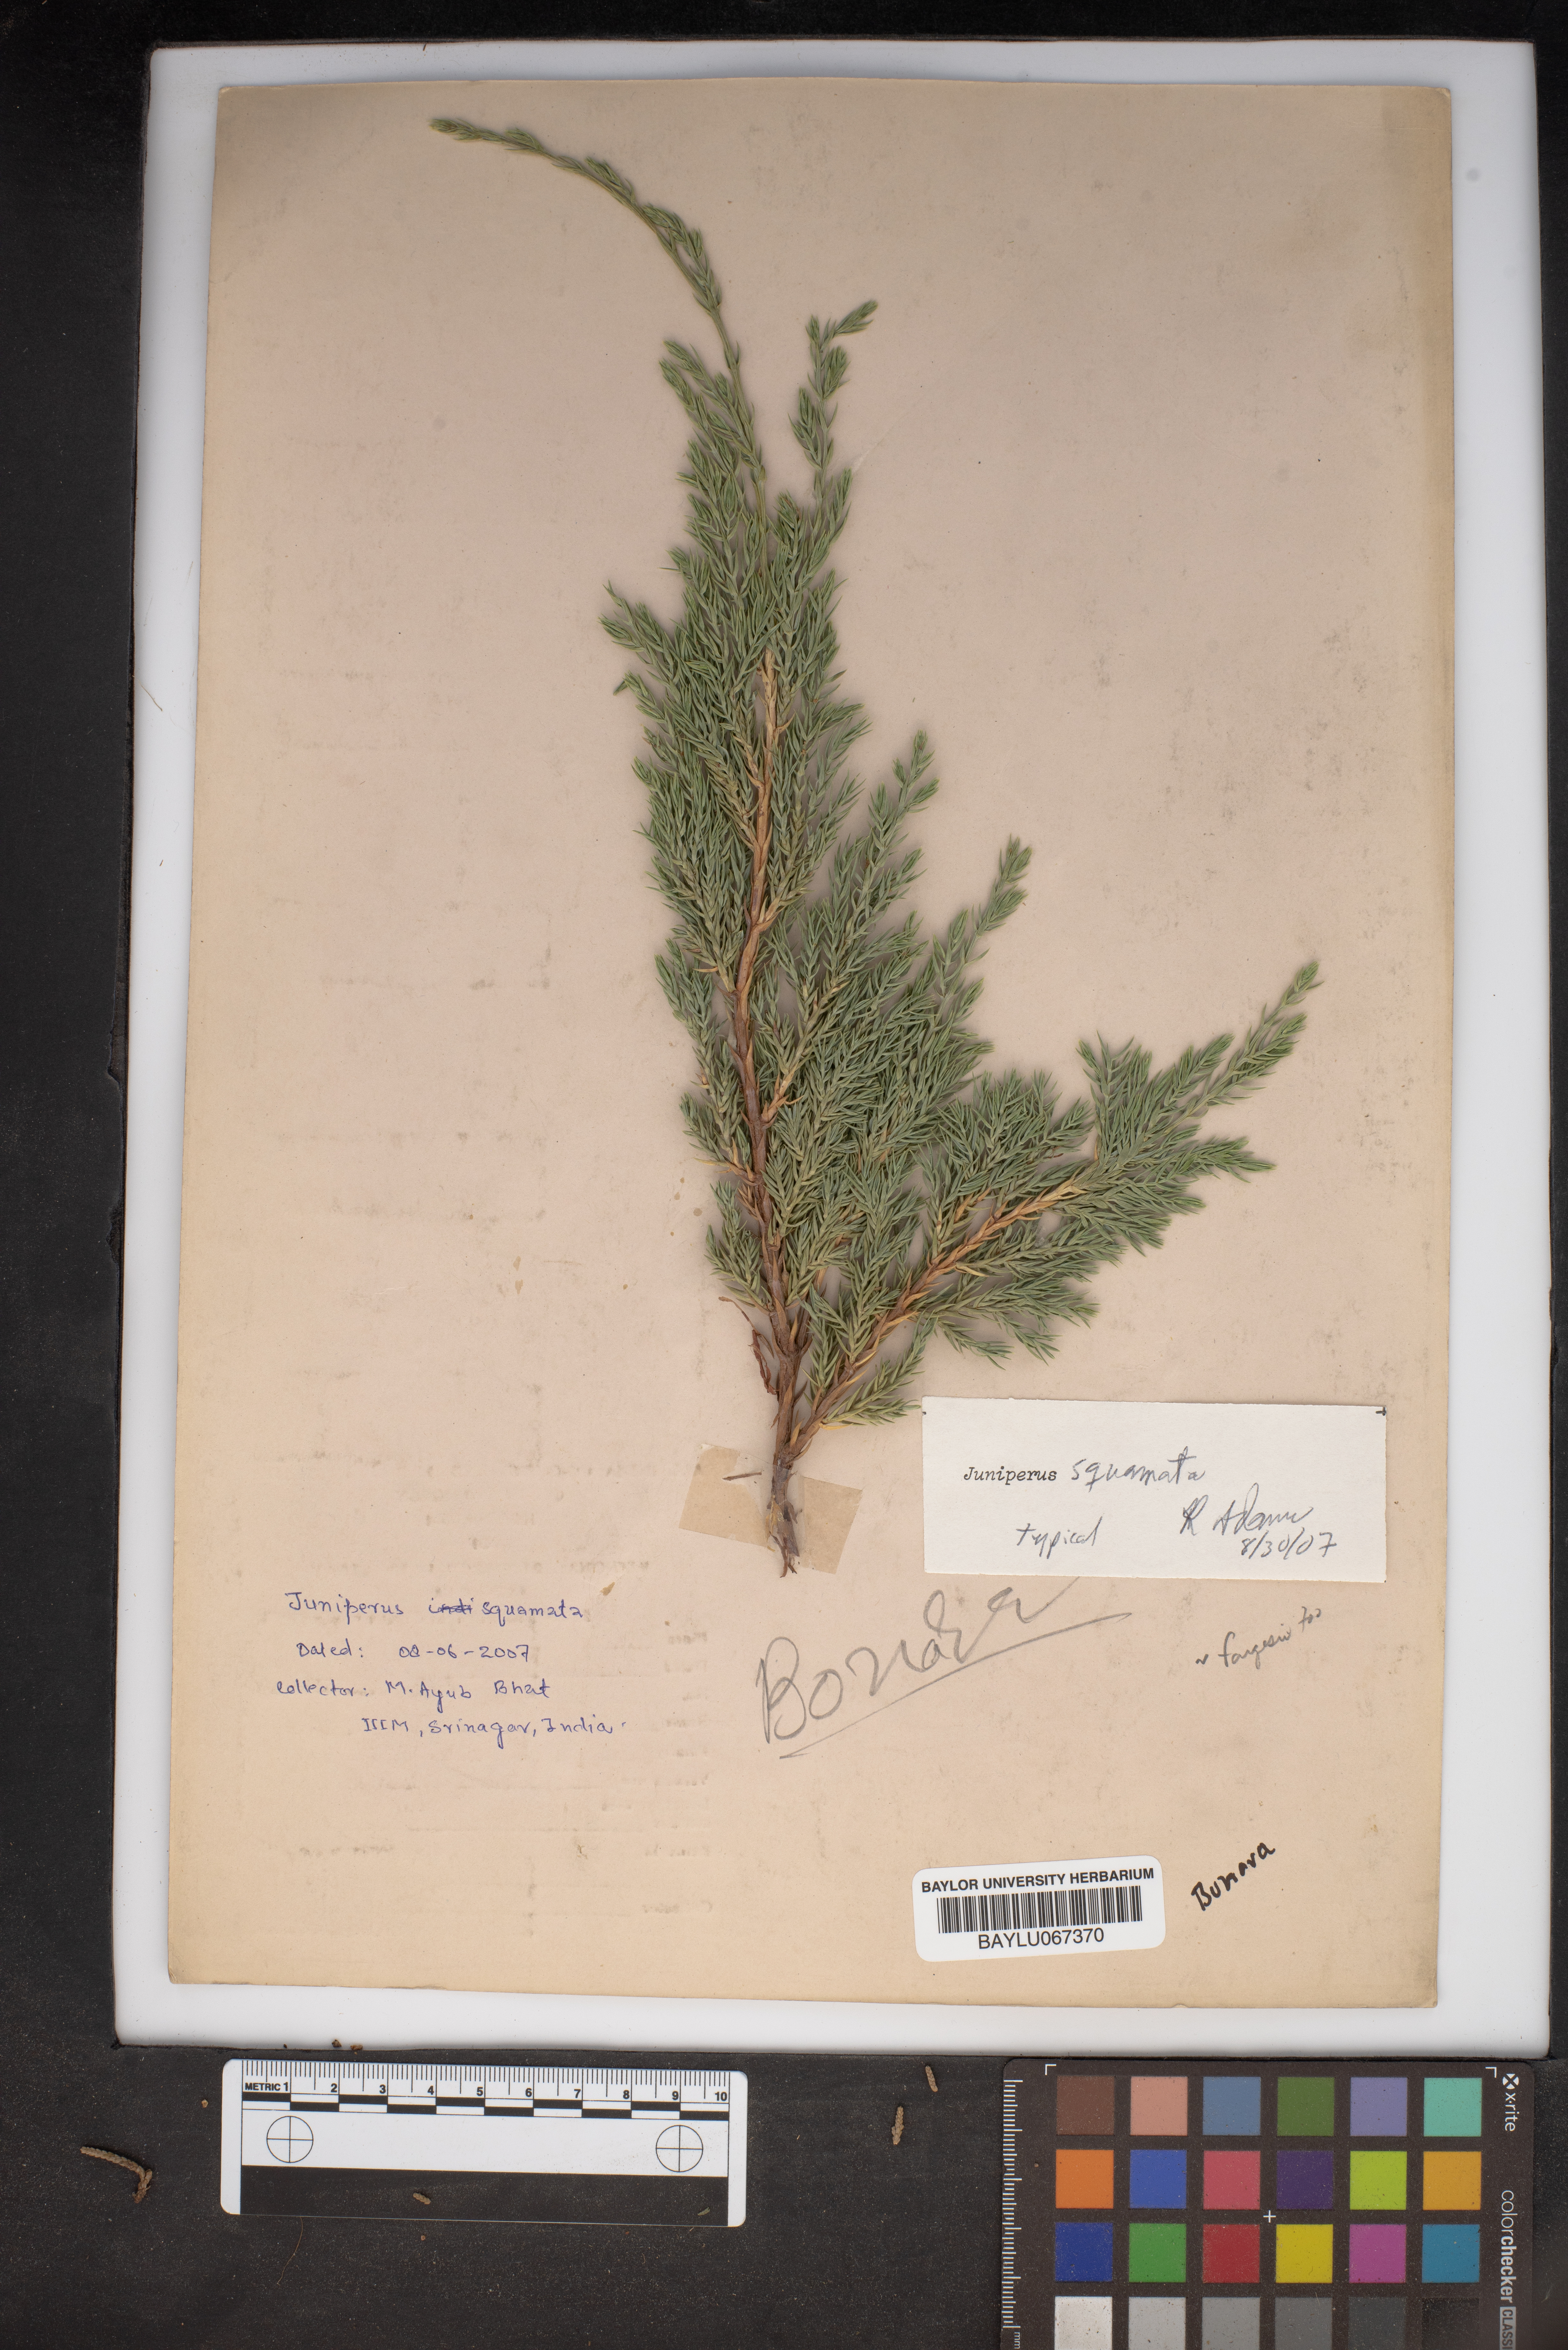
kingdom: Plantae
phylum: Tracheophyta
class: Pinopsida
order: Pinales
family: Cupressaceae
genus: Juniperus
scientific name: Juniperus squamata
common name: Flaky juniper
